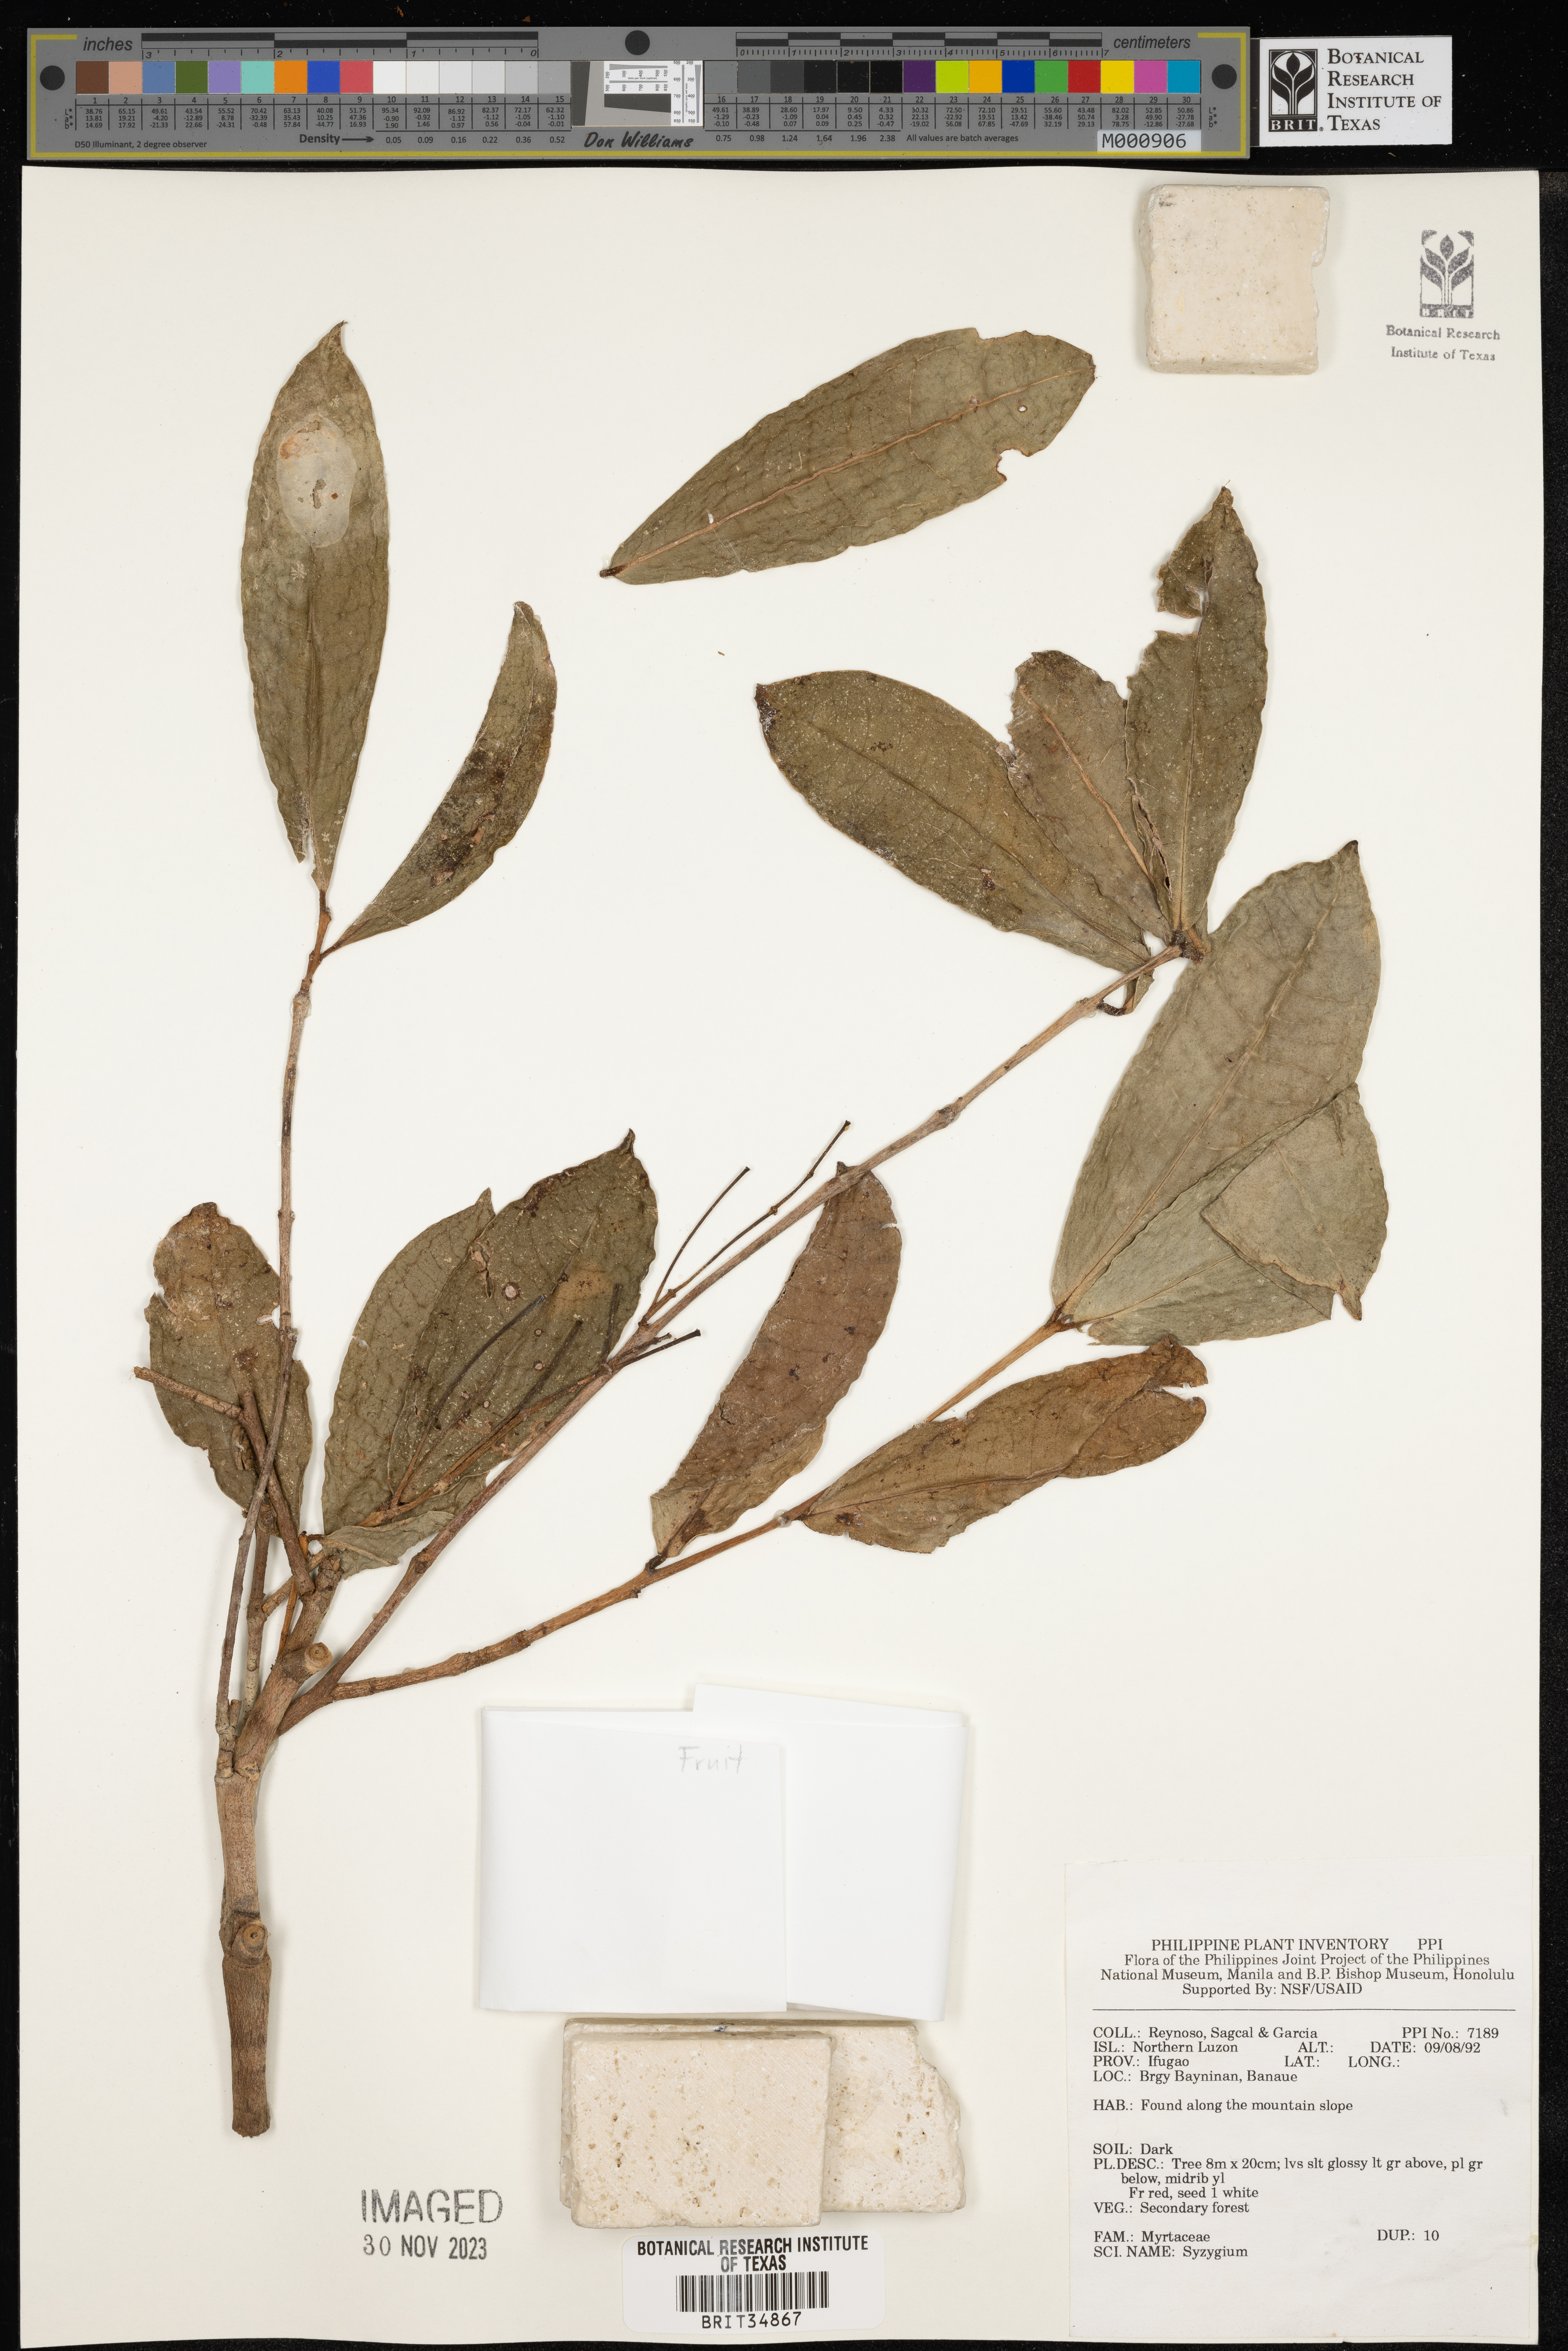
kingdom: Plantae
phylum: Tracheophyta
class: Magnoliopsida
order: Myrtales
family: Myrtaceae
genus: Syzygium
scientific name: Syzygium
